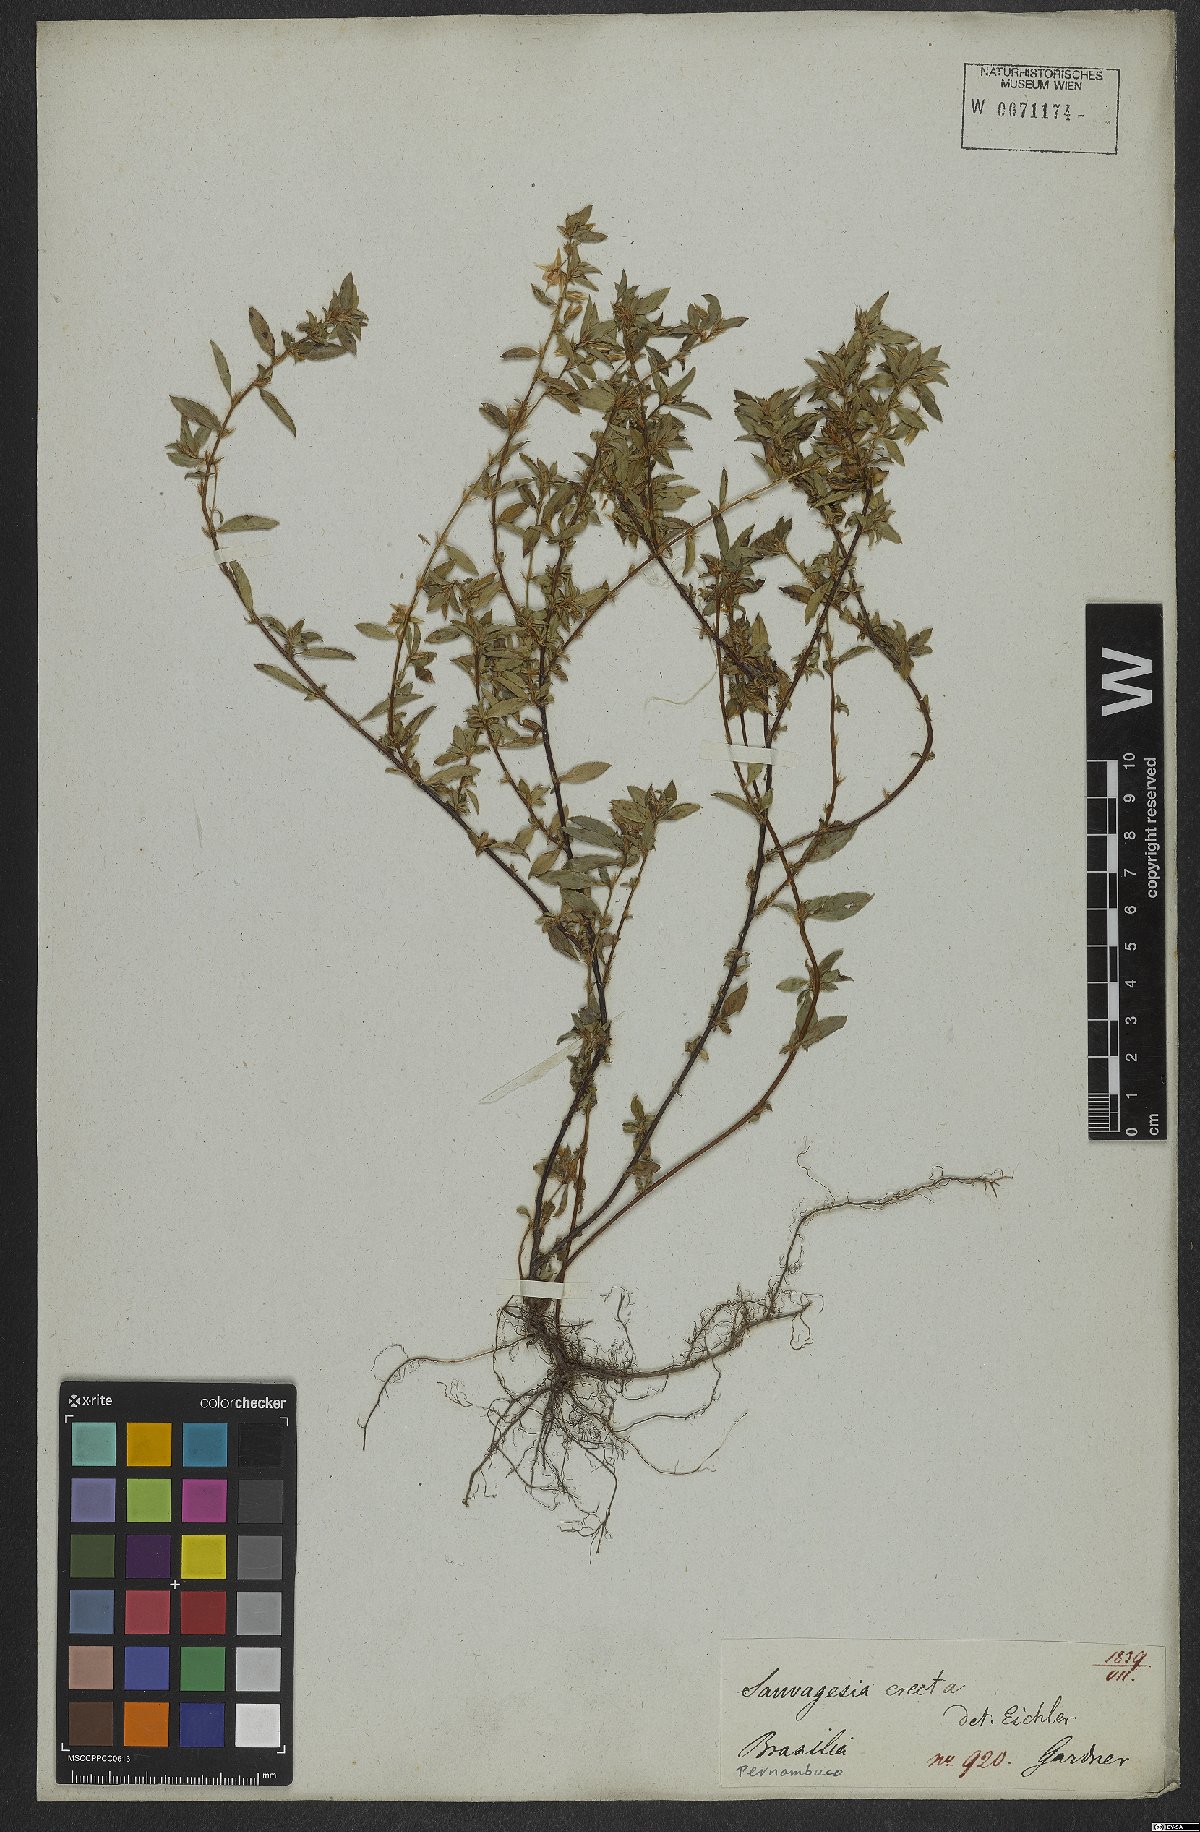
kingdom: Plantae
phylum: Tracheophyta
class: Magnoliopsida
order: Malpighiales
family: Ochnaceae
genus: Sauvagesia
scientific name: Sauvagesia erecta
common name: Creole tea
